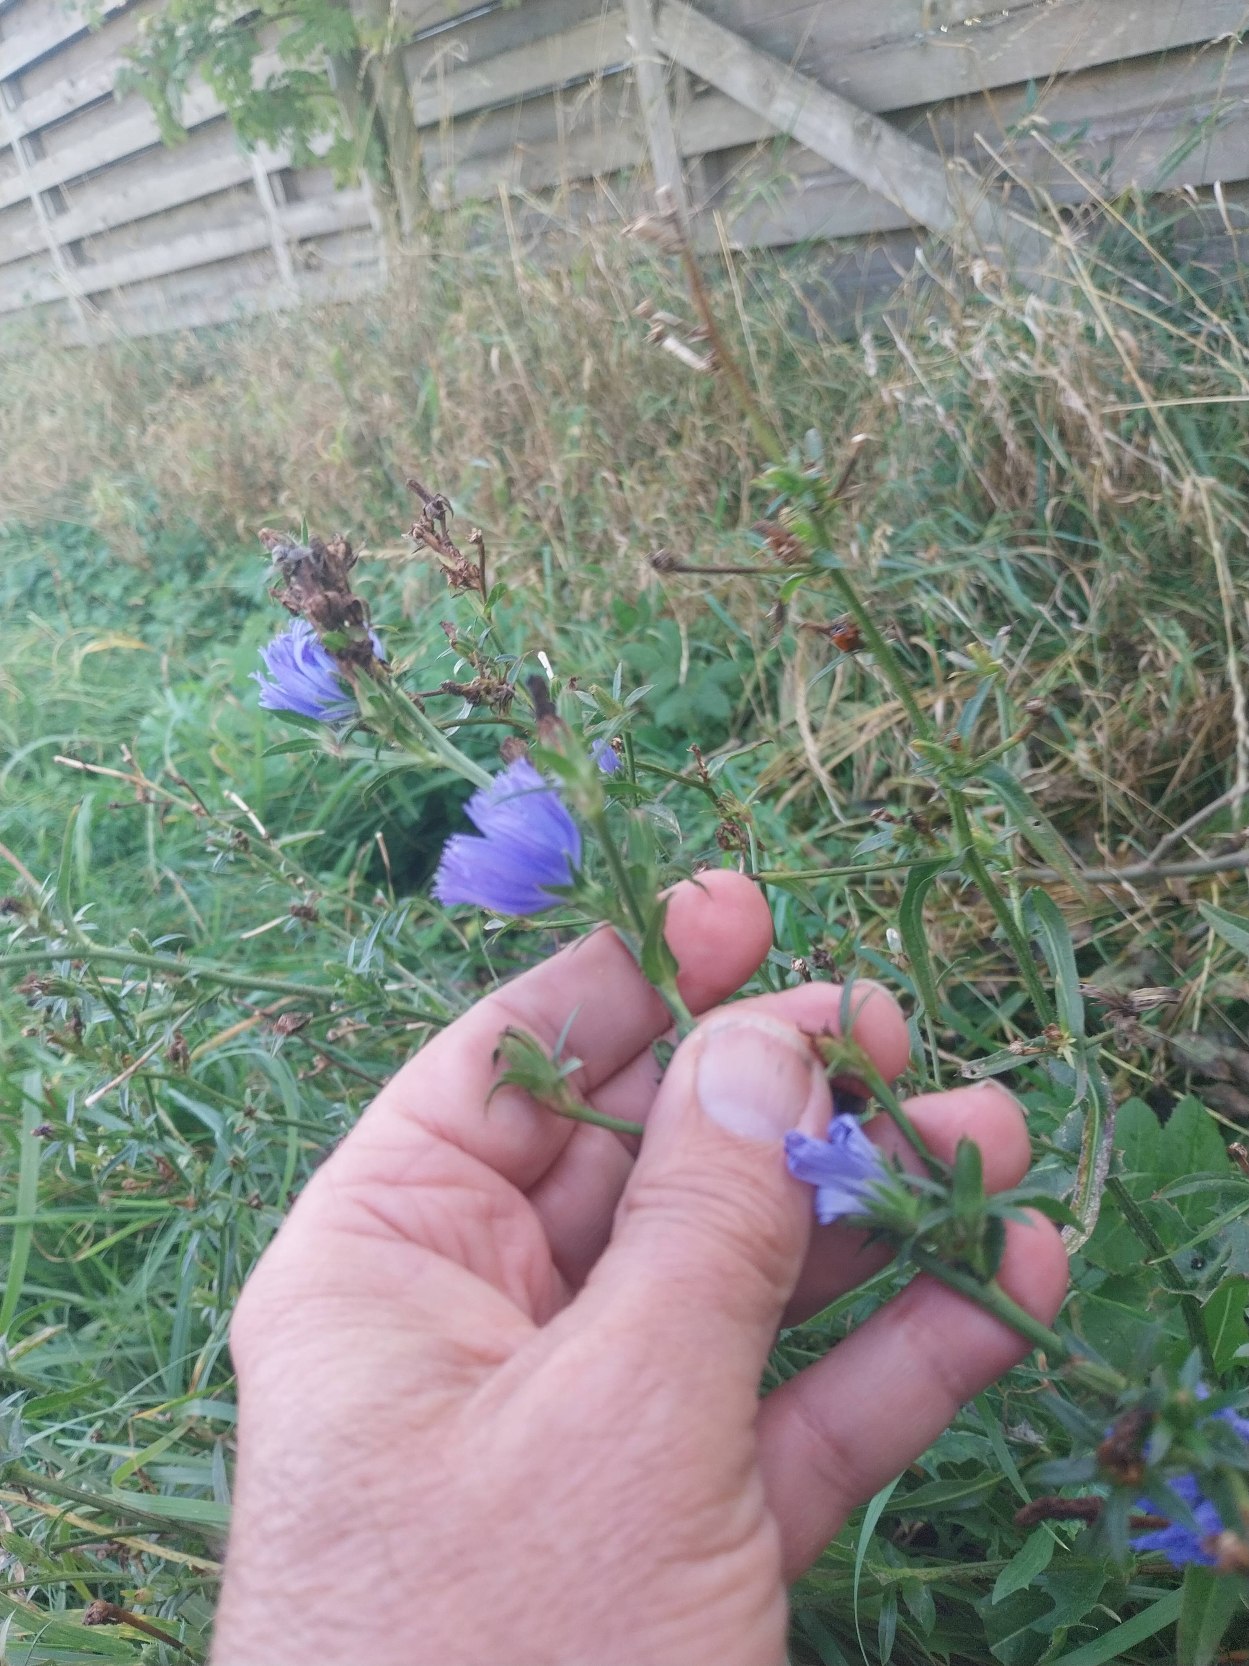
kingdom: Plantae
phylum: Tracheophyta
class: Magnoliopsida
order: Asterales
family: Asteraceae
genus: Cichorium
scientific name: Cichorium intybus
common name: Cikorie
